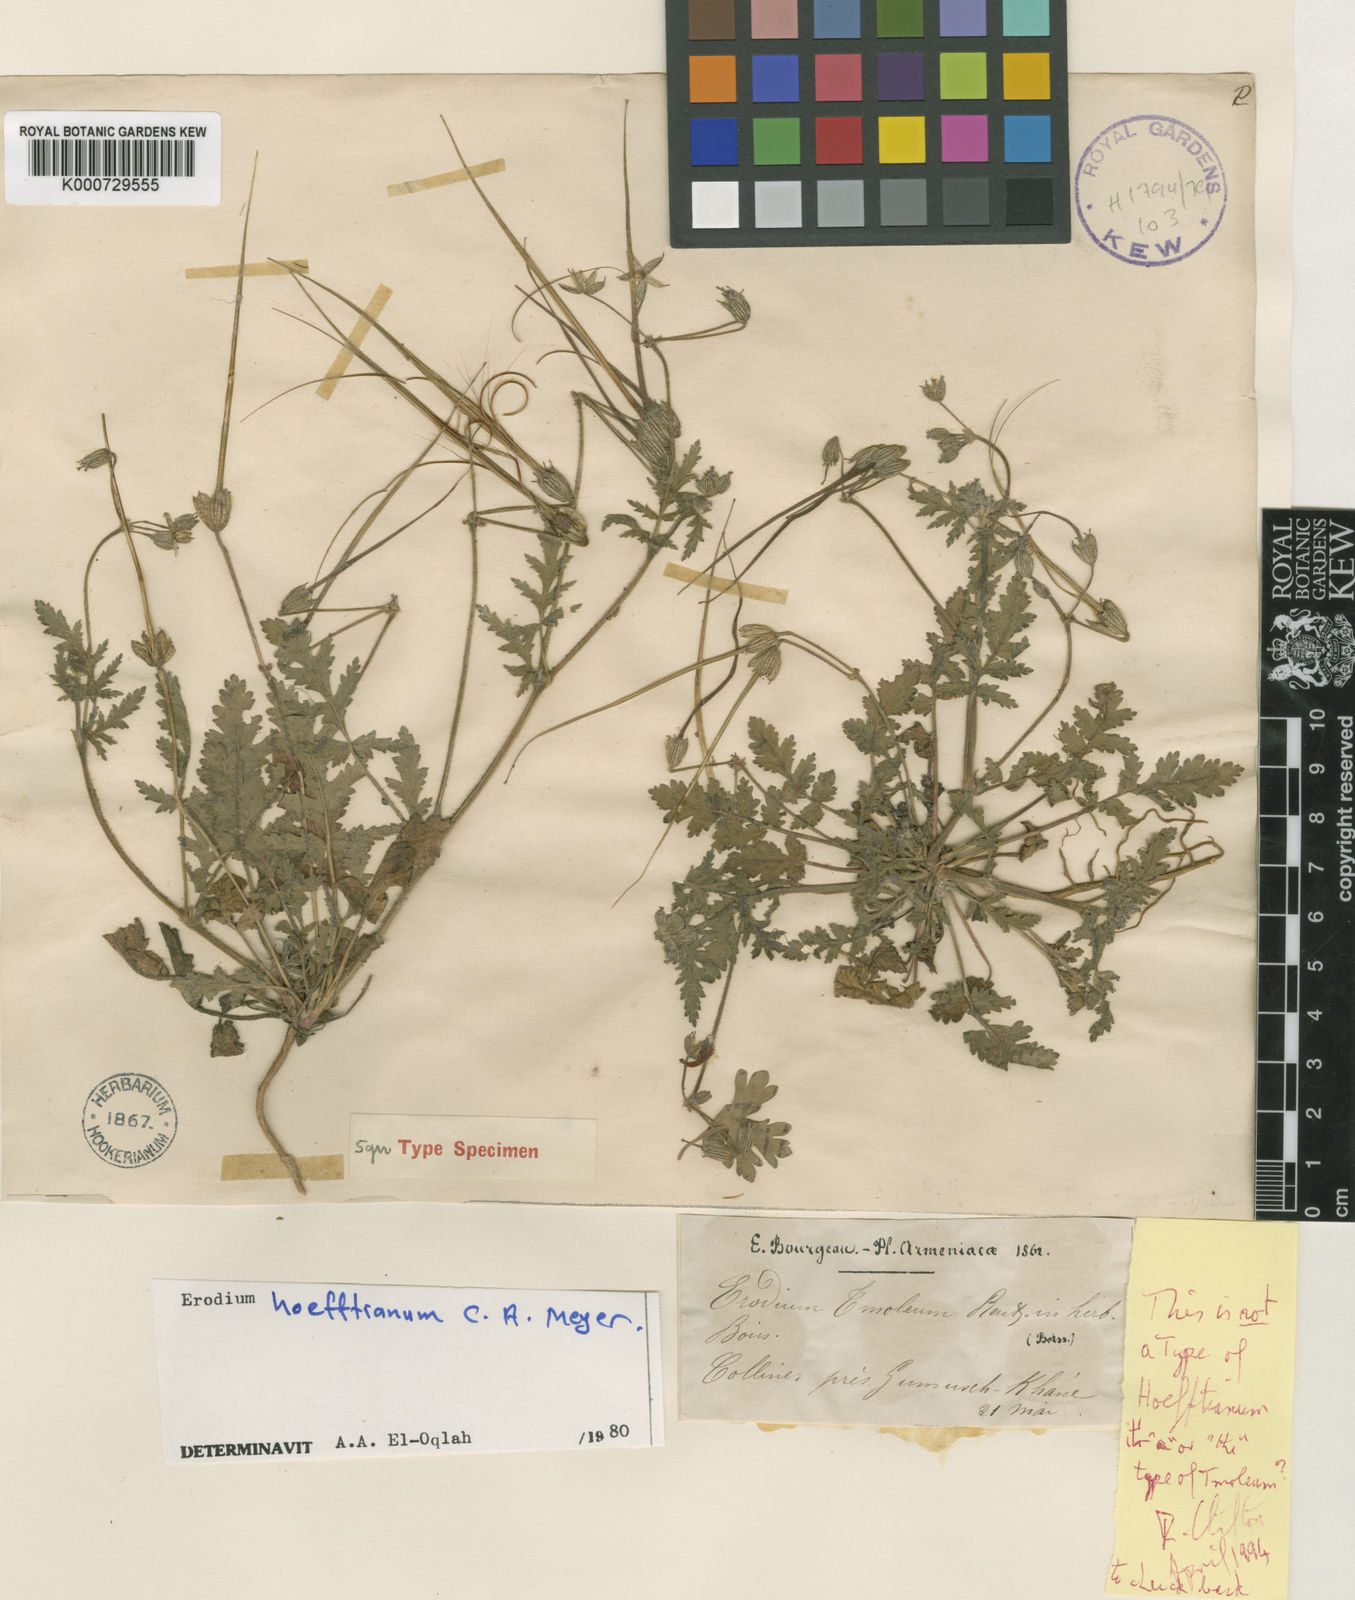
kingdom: Plantae
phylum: Tracheophyta
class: Magnoliopsida
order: Geraniales
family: Geraniaceae
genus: Erodium
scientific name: Erodium hoefftianum
